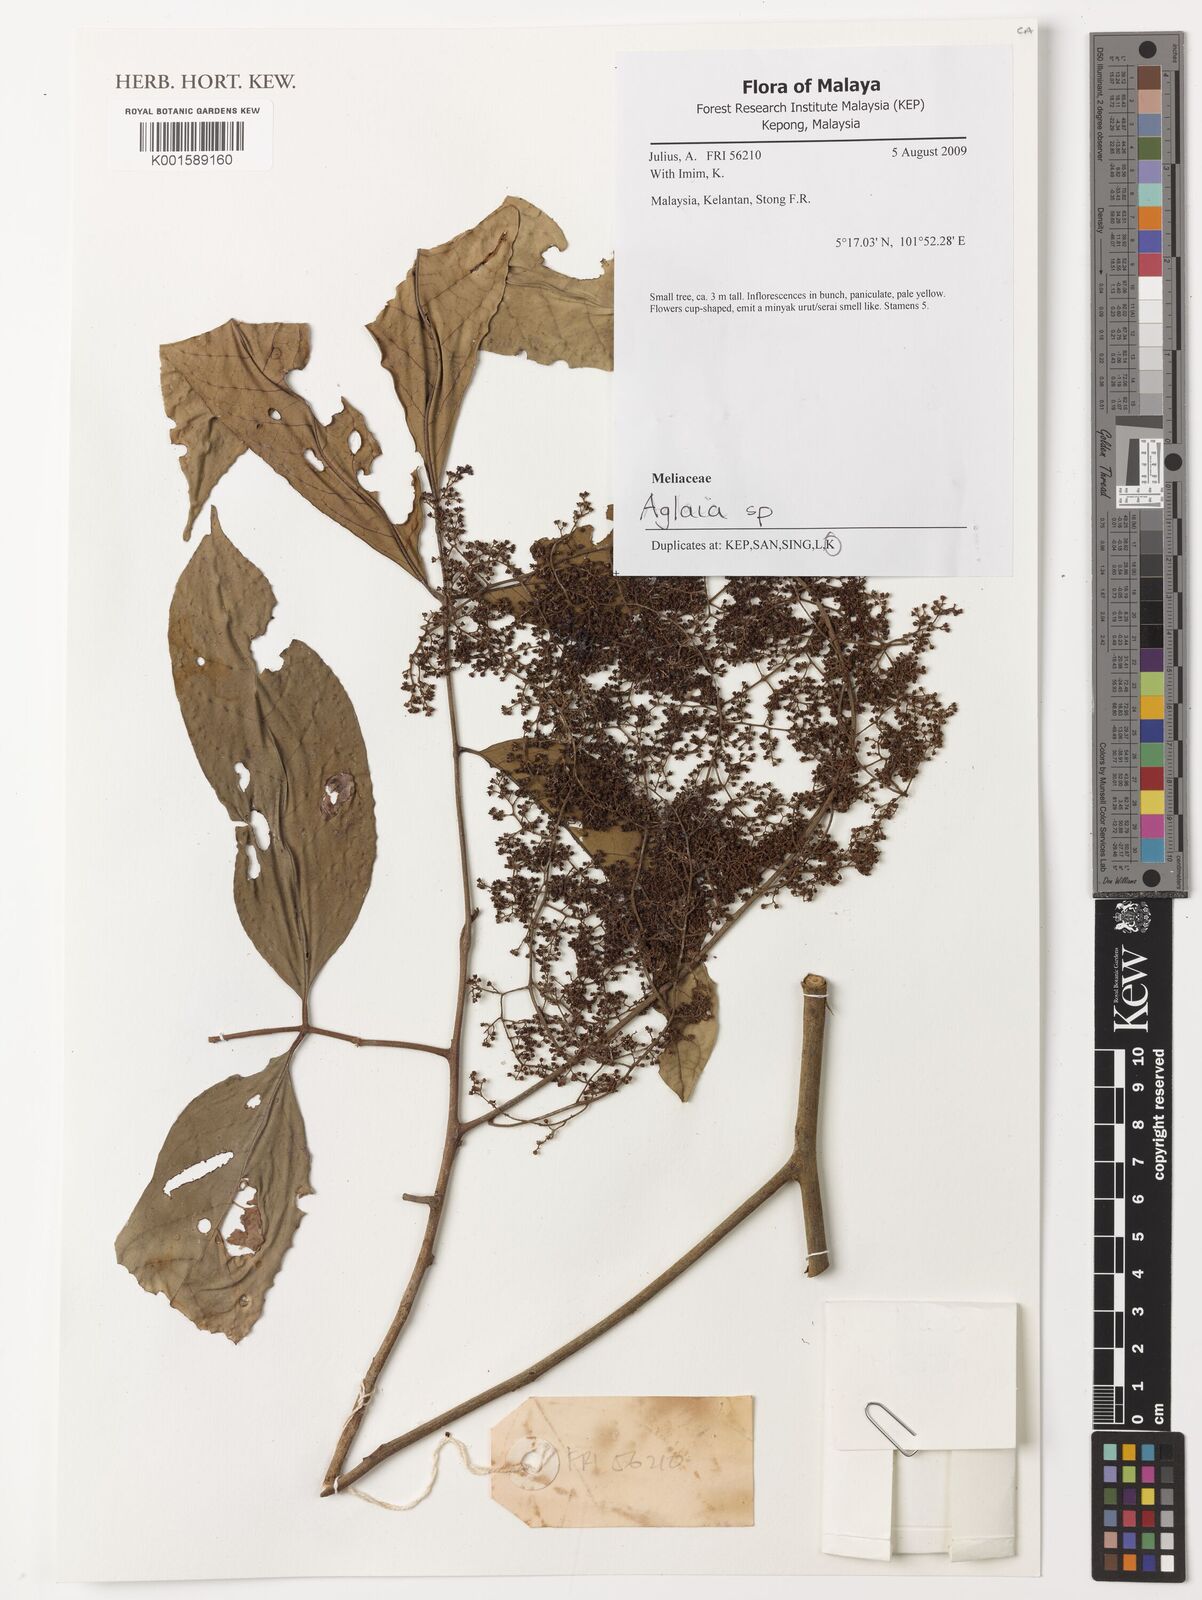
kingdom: Plantae
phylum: Tracheophyta
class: Magnoliopsida
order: Sapindales
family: Meliaceae
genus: Aglaia
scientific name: Aglaia
